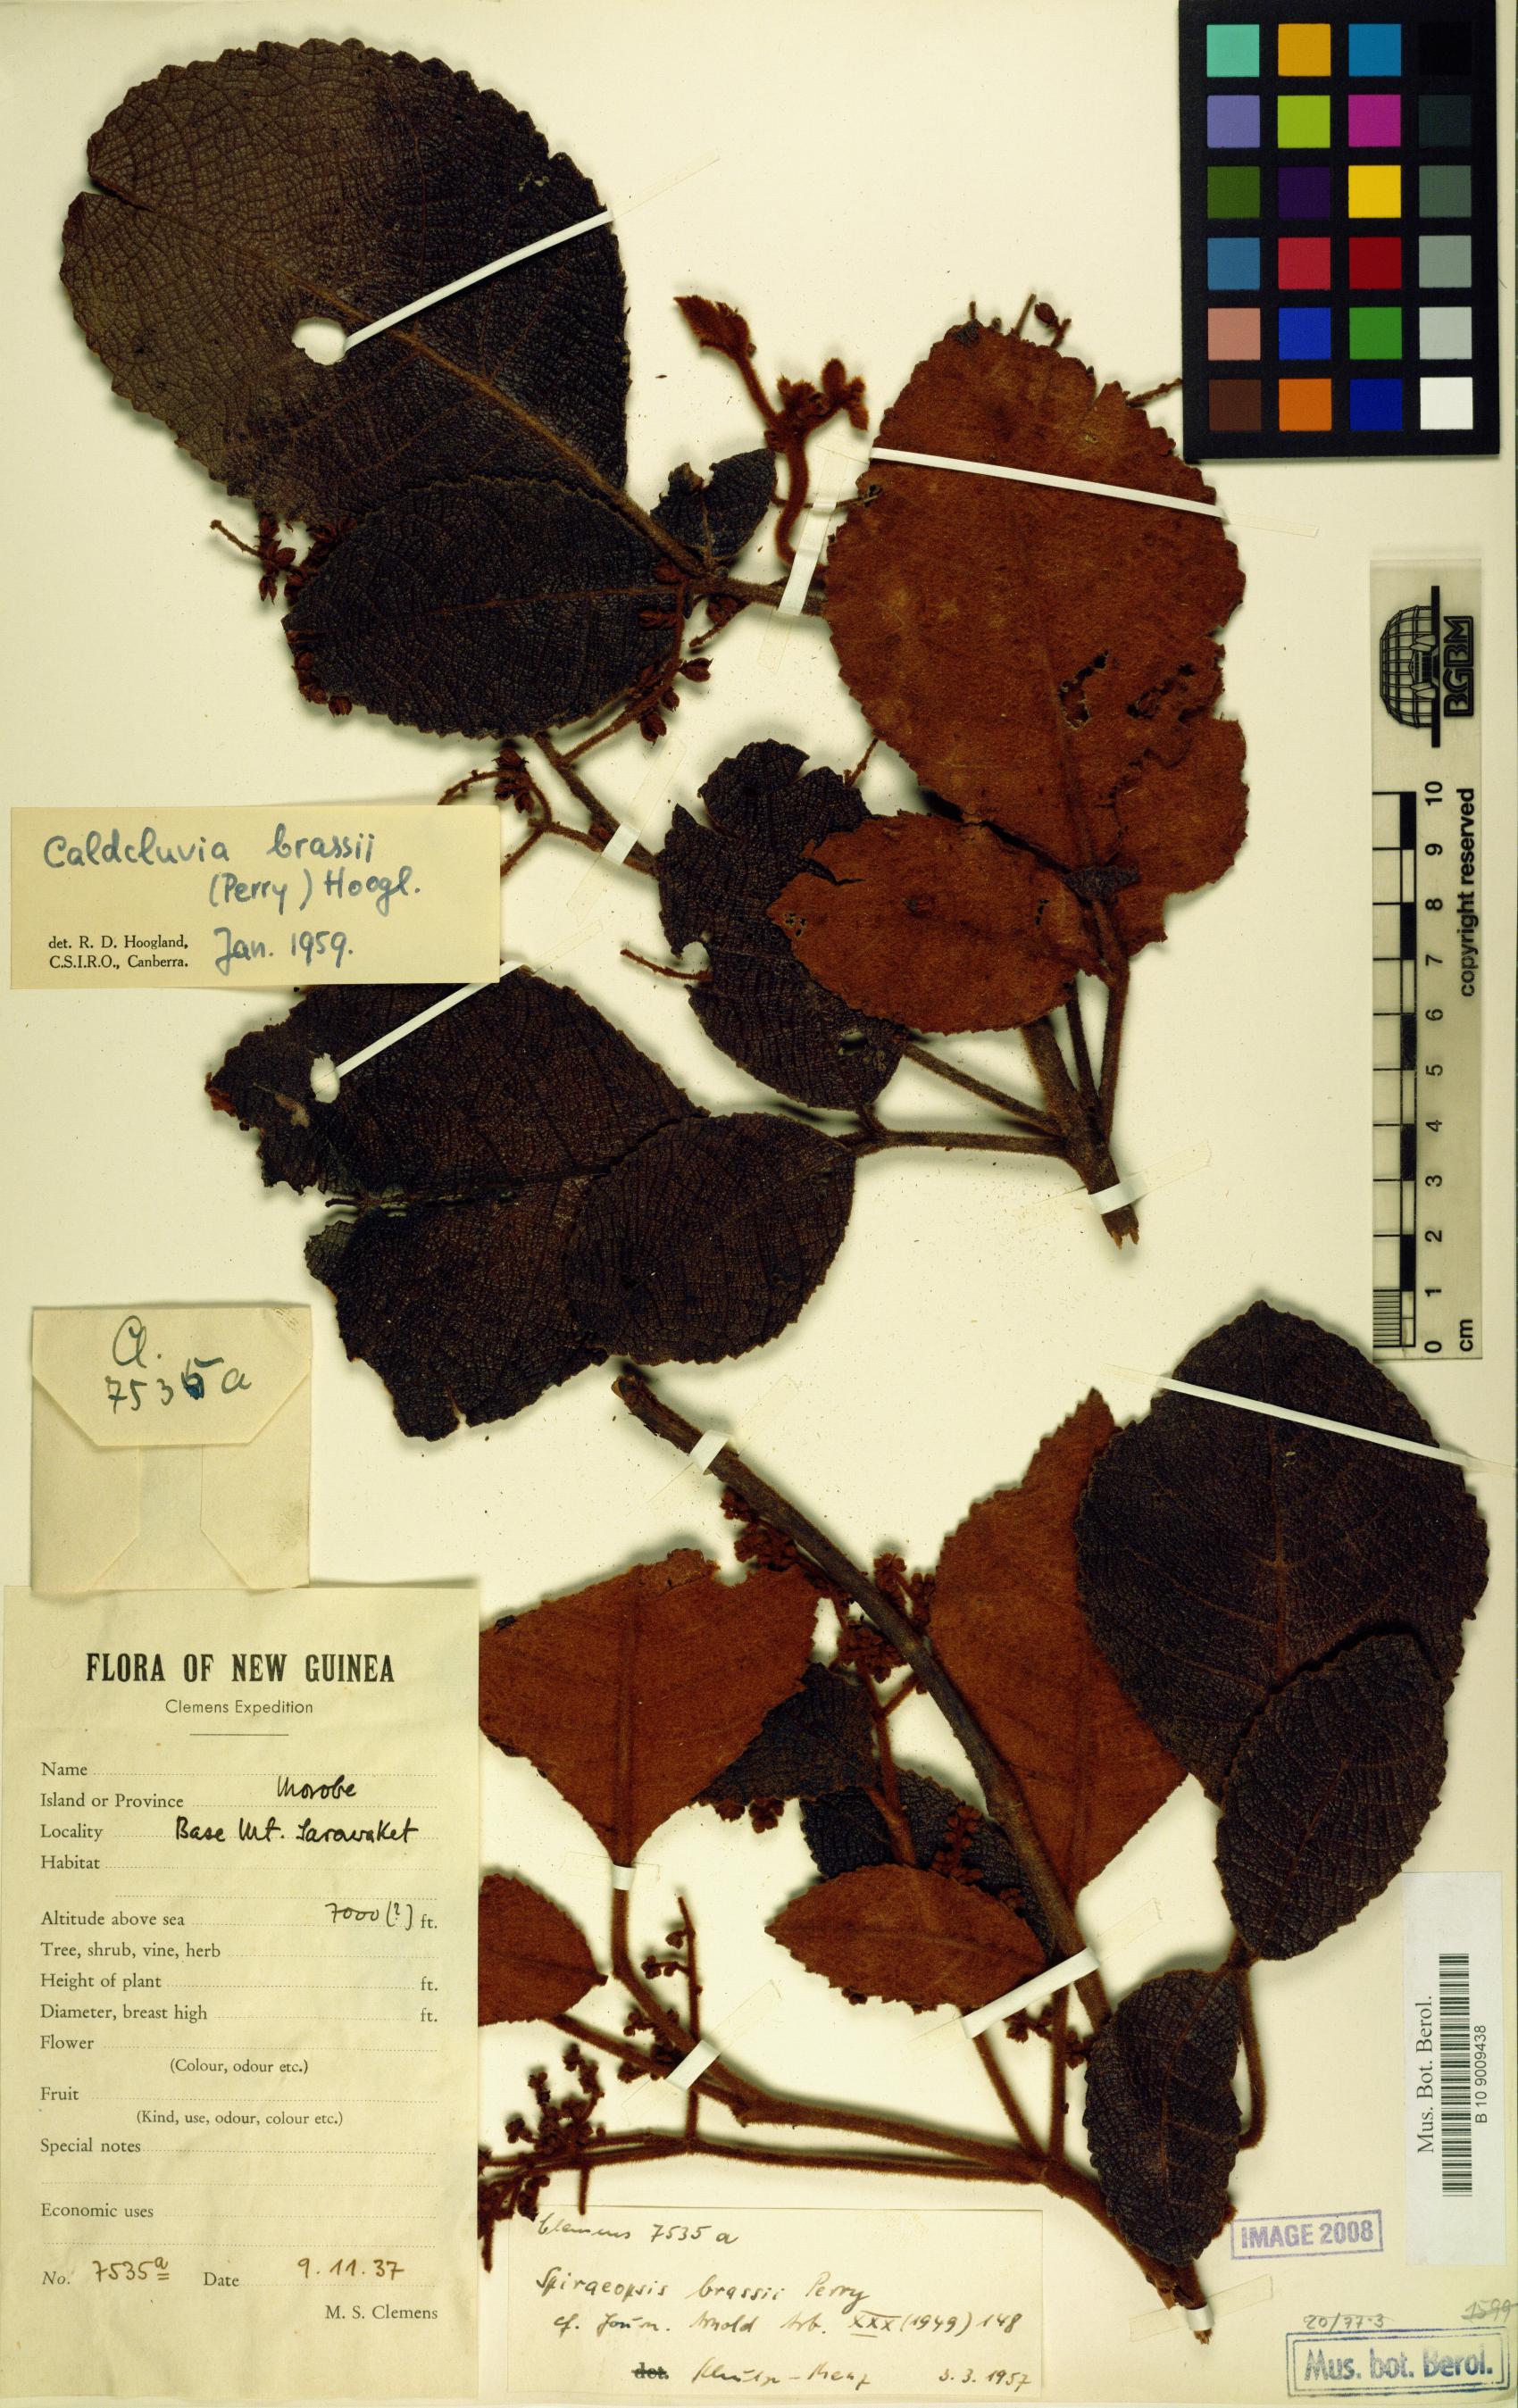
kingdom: Plantae
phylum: Tracheophyta
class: Magnoliopsida
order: Oxalidales
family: Cunoniaceae
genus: Ackama
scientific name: Ackama brassii
